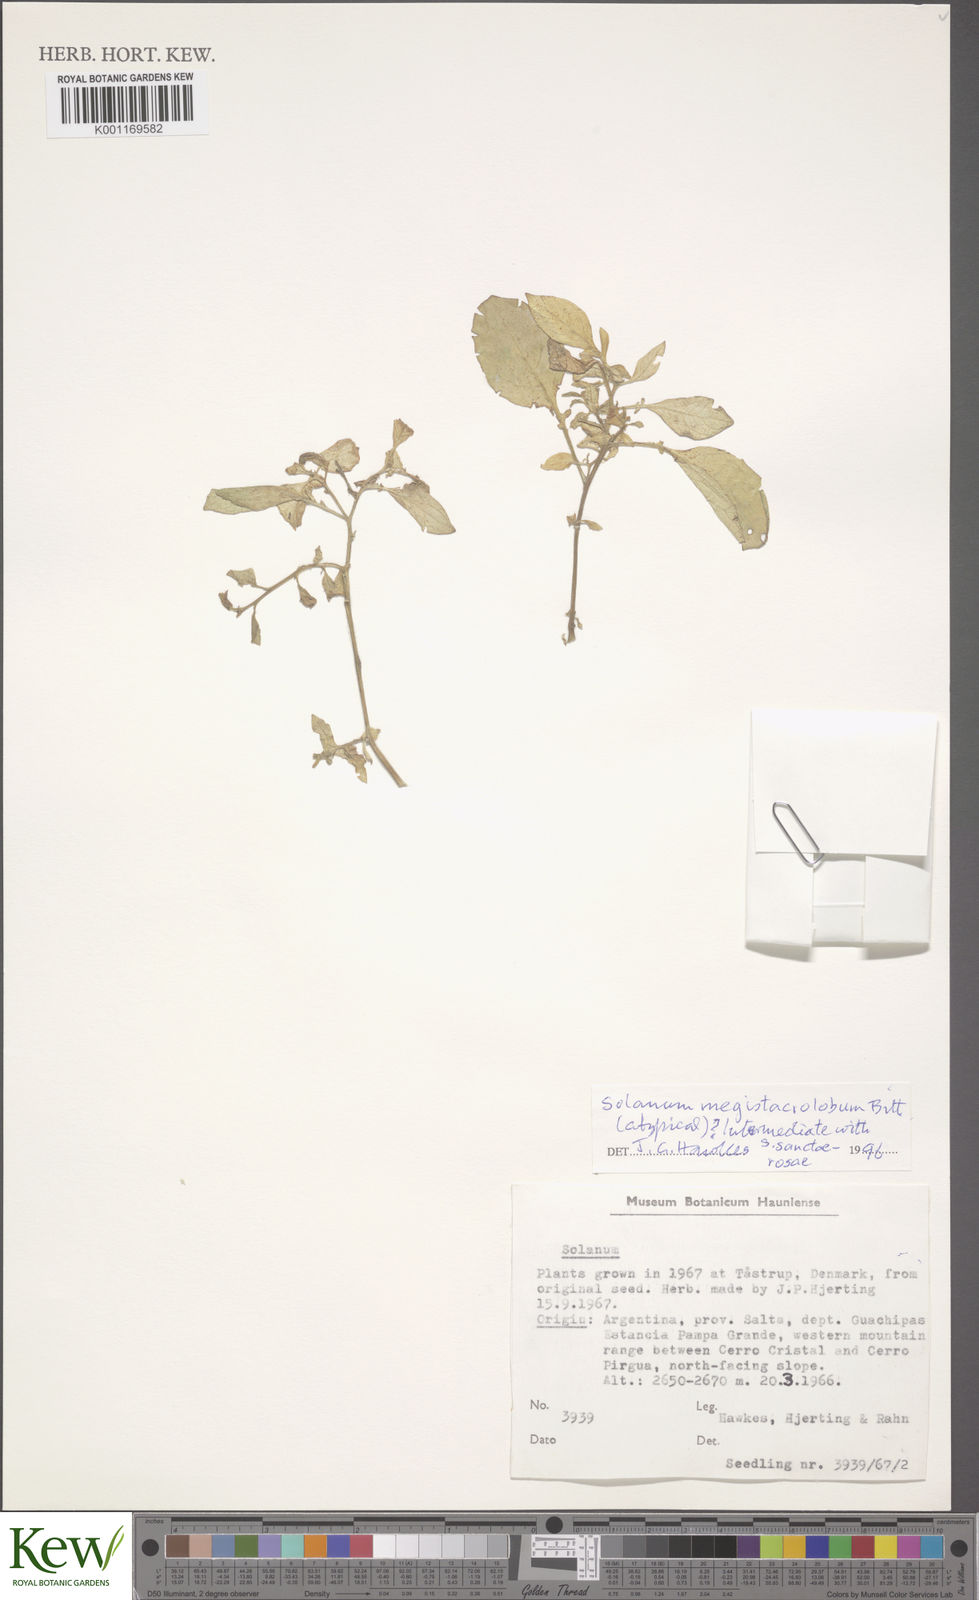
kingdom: Plantae
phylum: Tracheophyta
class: Magnoliopsida
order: Solanales
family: Solanaceae
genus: Solanum
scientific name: Solanum boliviense
